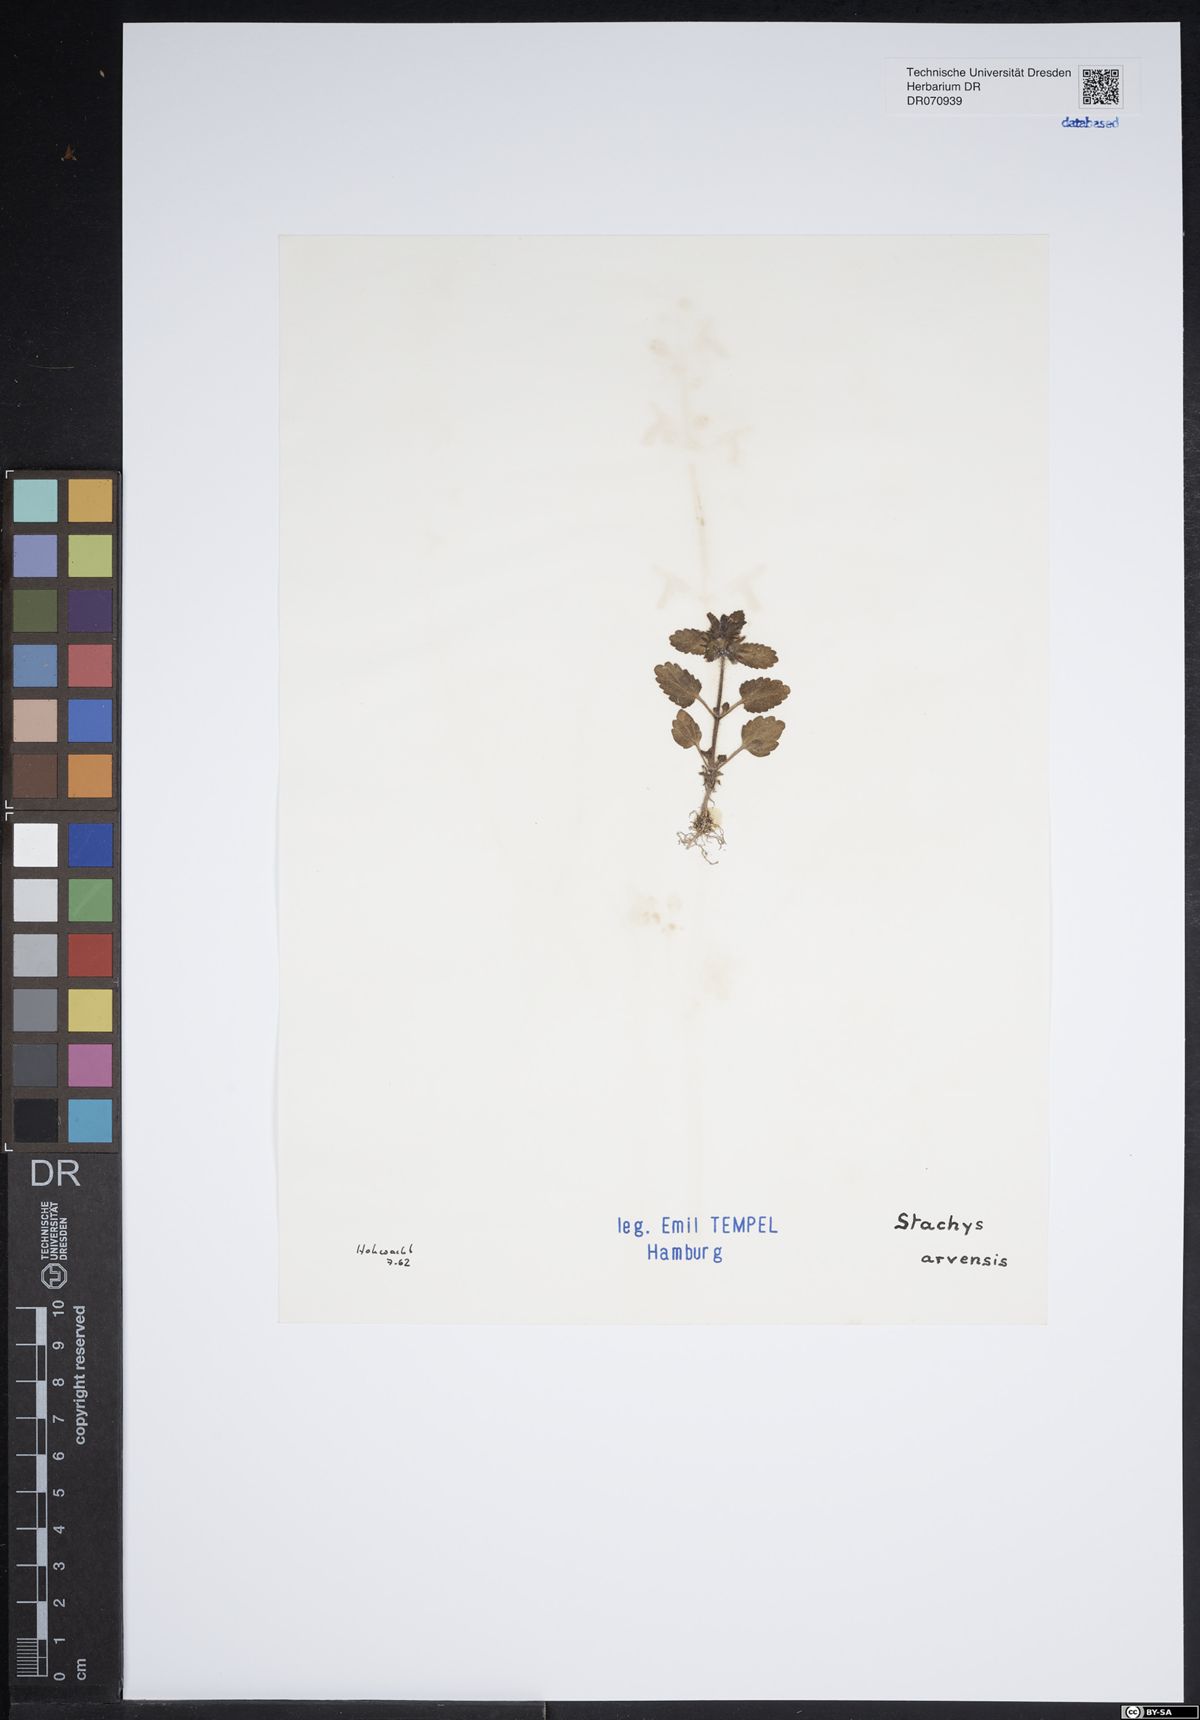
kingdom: Plantae
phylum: Tracheophyta
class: Magnoliopsida
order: Lamiales
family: Lamiaceae
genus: Stachys
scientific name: Stachys arvensis
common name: Field woundwort
